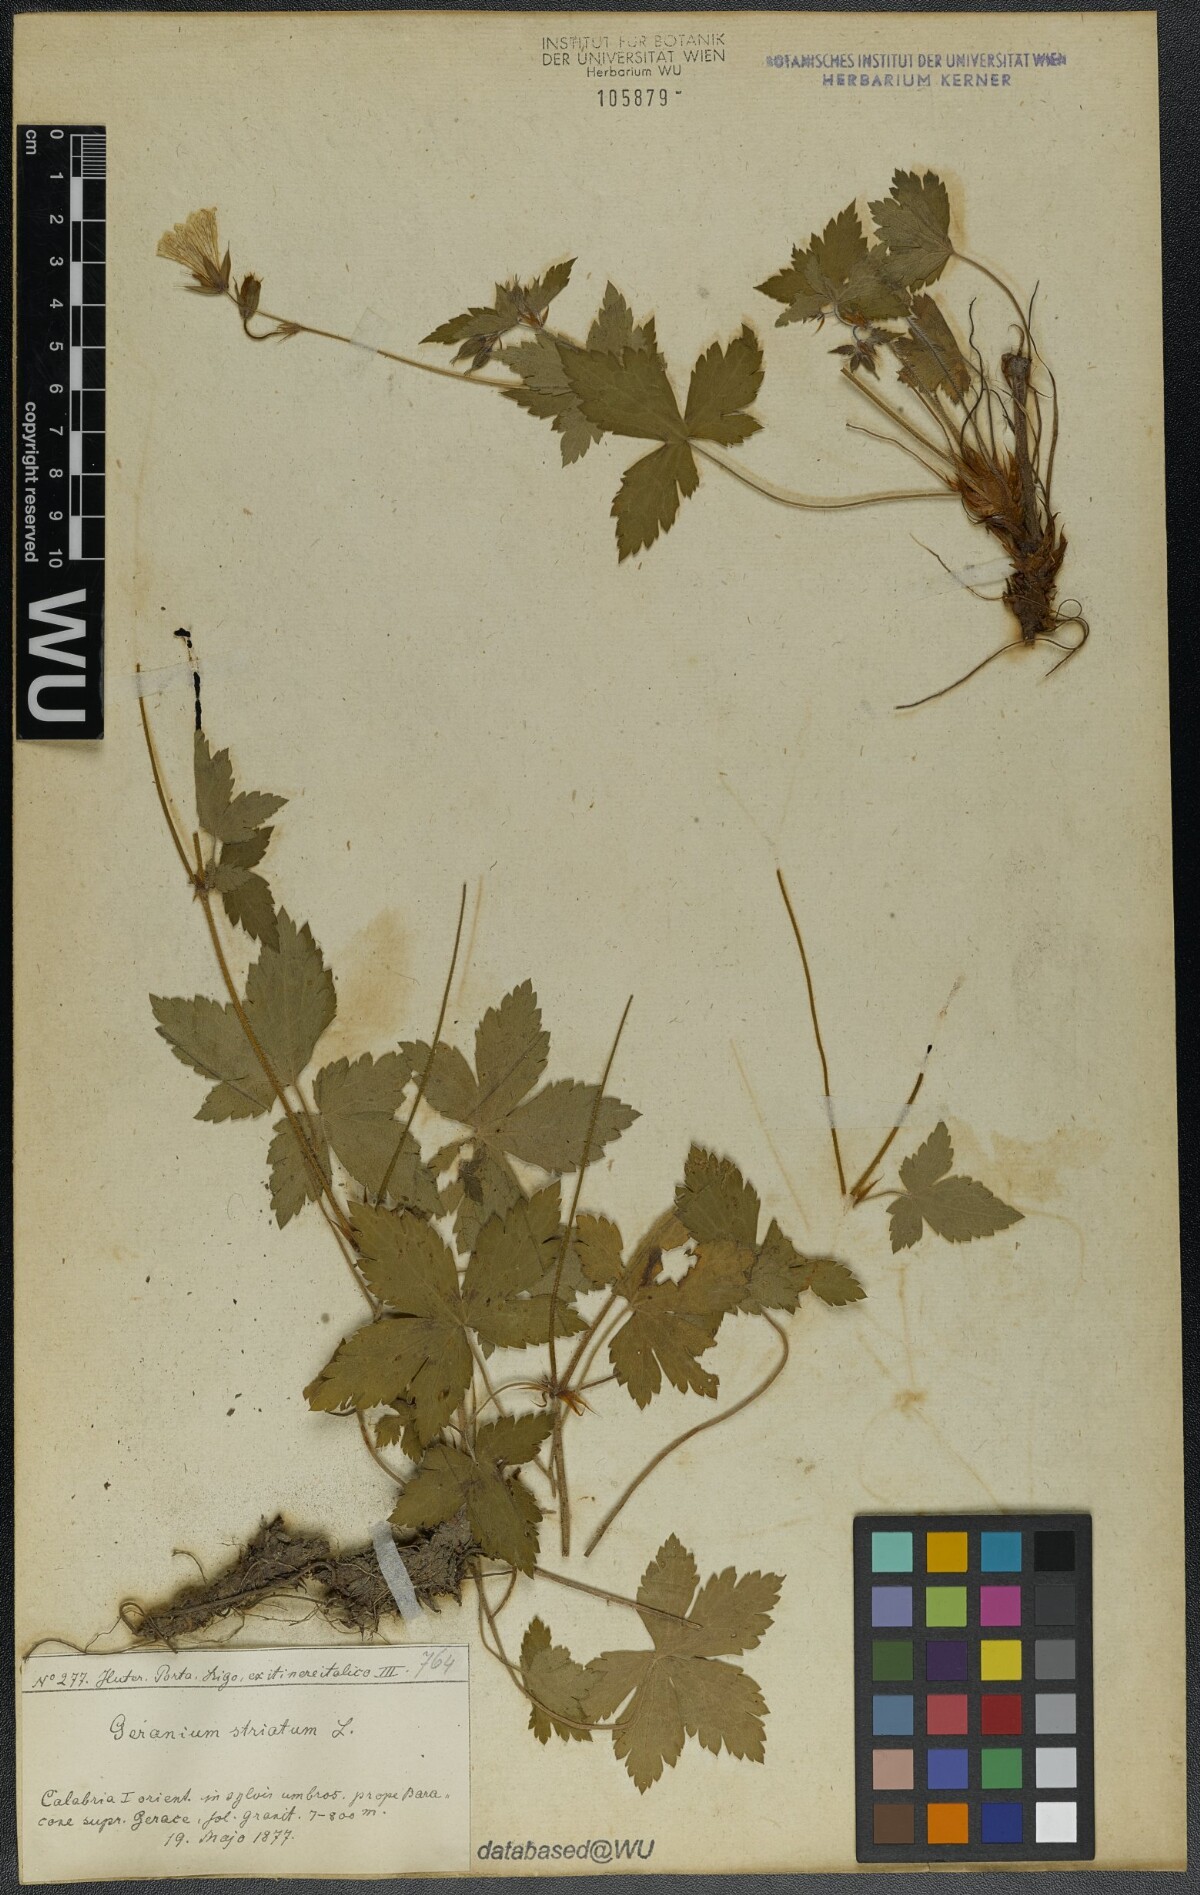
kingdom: Plantae
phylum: Tracheophyta
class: Magnoliopsida
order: Geraniales
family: Geraniaceae
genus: Geranium
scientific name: Geranium versicolor
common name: Pencilled crane's-bill
